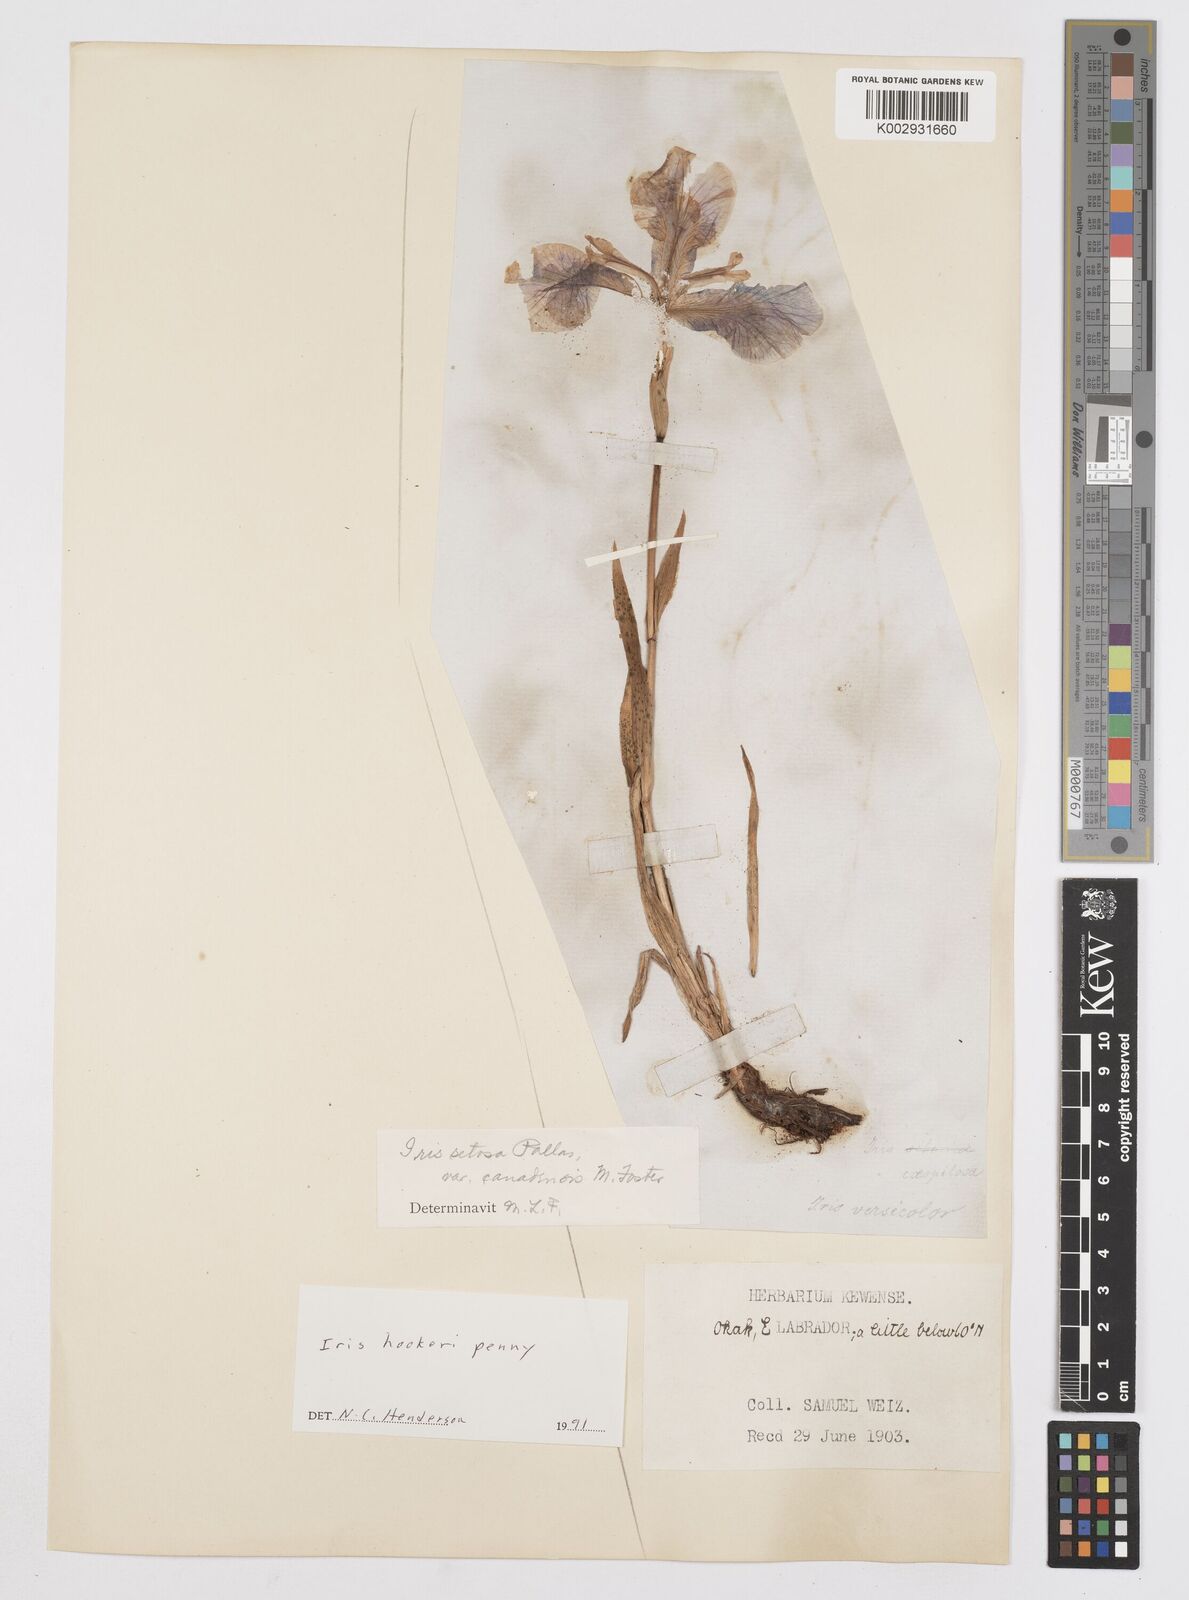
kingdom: Plantae
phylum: Tracheophyta
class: Liliopsida
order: Asparagales
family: Iridaceae
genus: Iris
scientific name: Iris setosa
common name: Arctic blue flag
